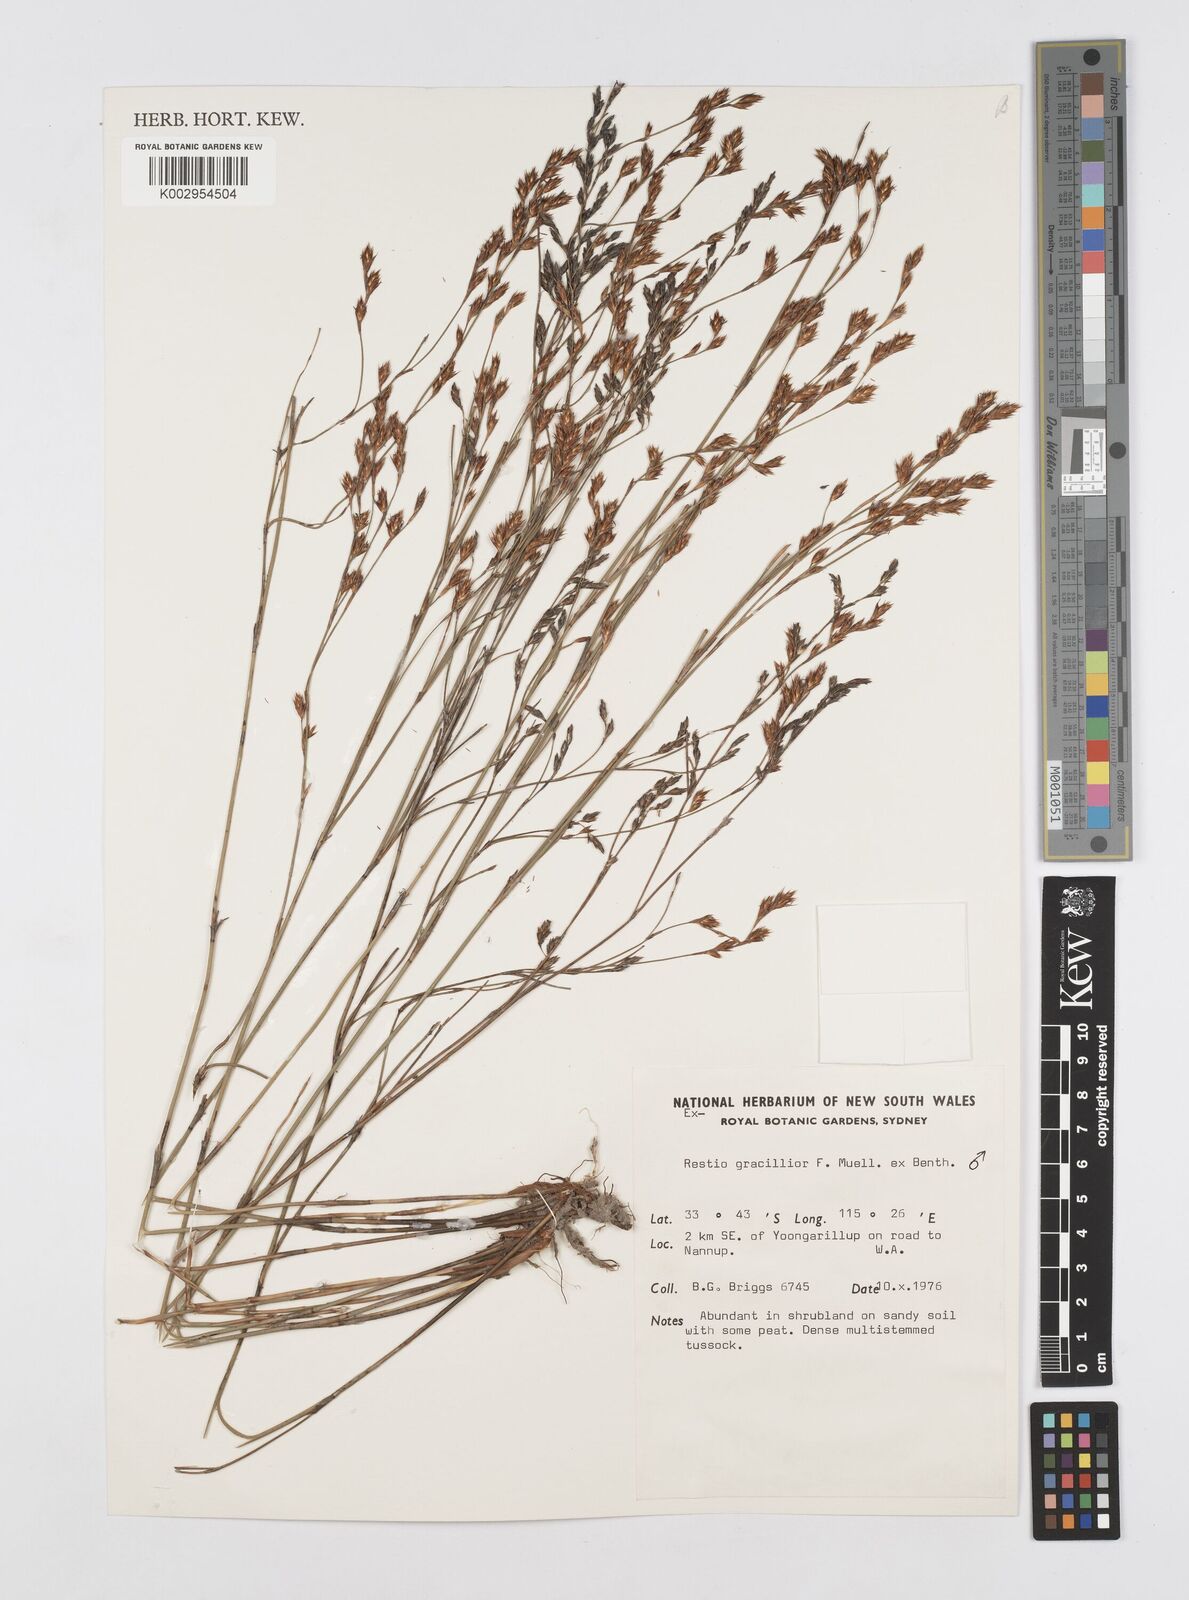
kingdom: Plantae
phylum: Tracheophyta
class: Liliopsida
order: Poales
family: Restionaceae
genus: Chordifex
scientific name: Chordifex gracilior
